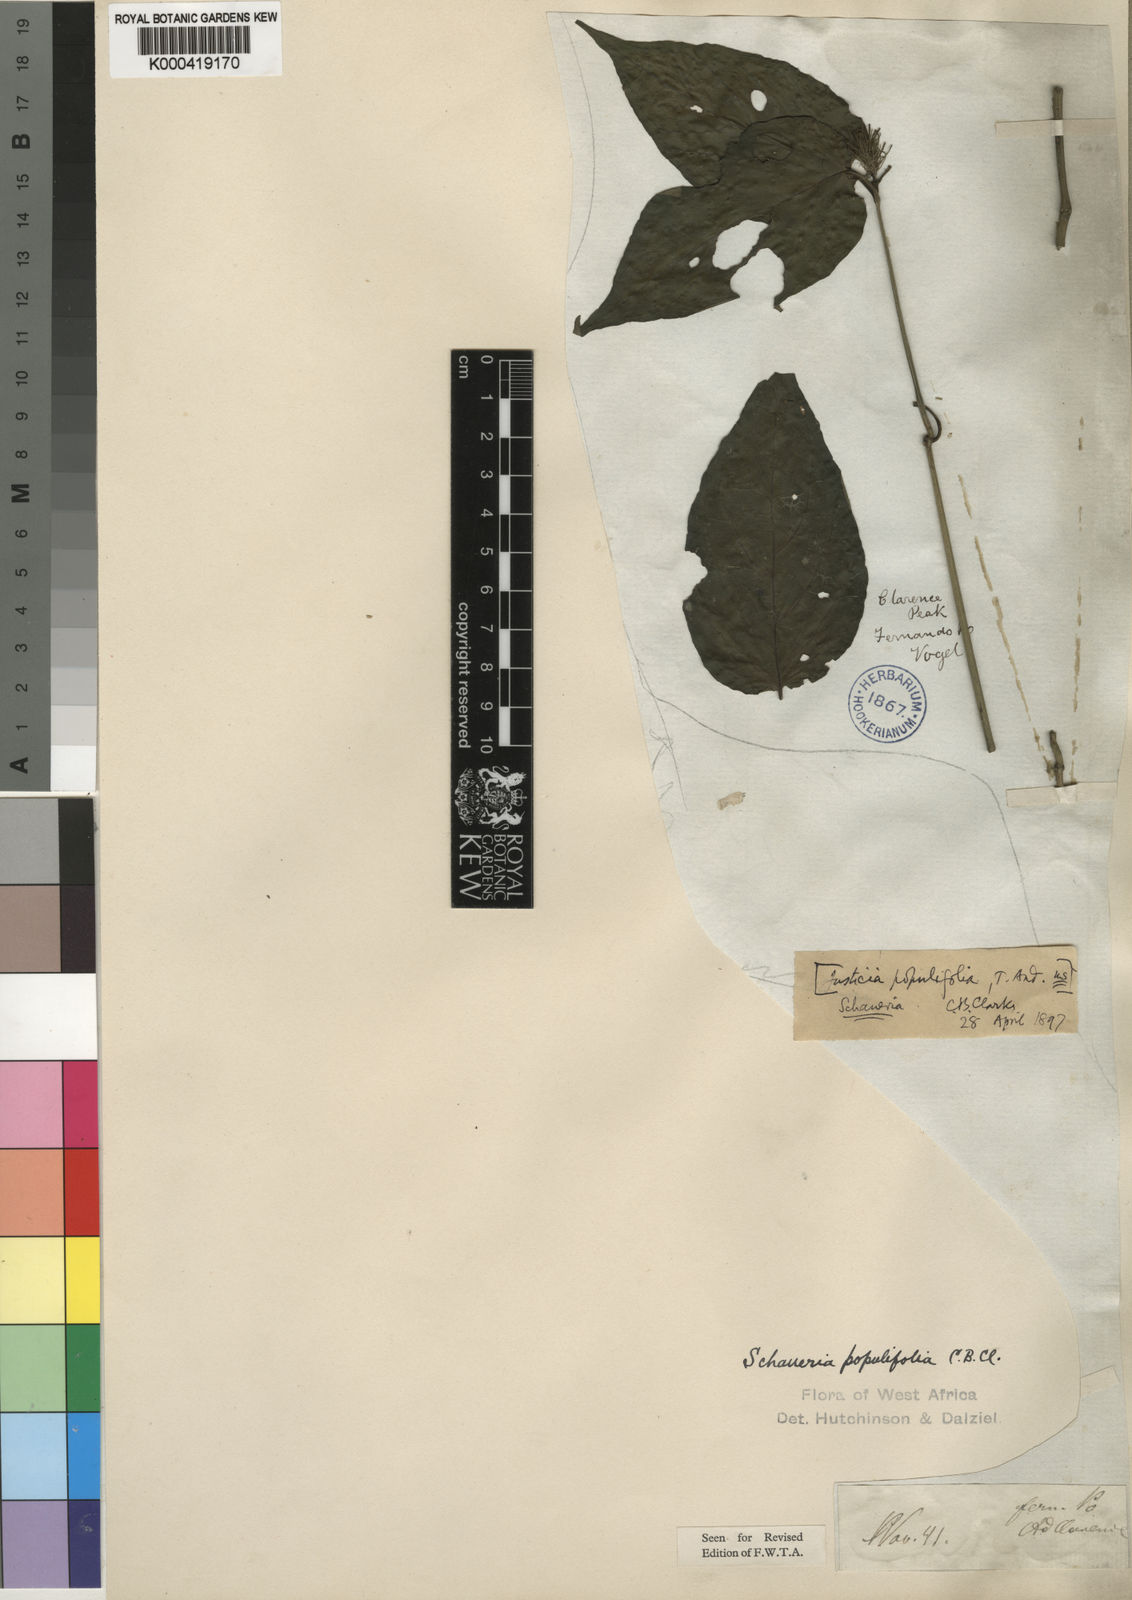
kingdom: Plantae
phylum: Tracheophyta
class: Magnoliopsida
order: Lamiales
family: Acanthaceae
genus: Justicia
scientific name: Justicia
